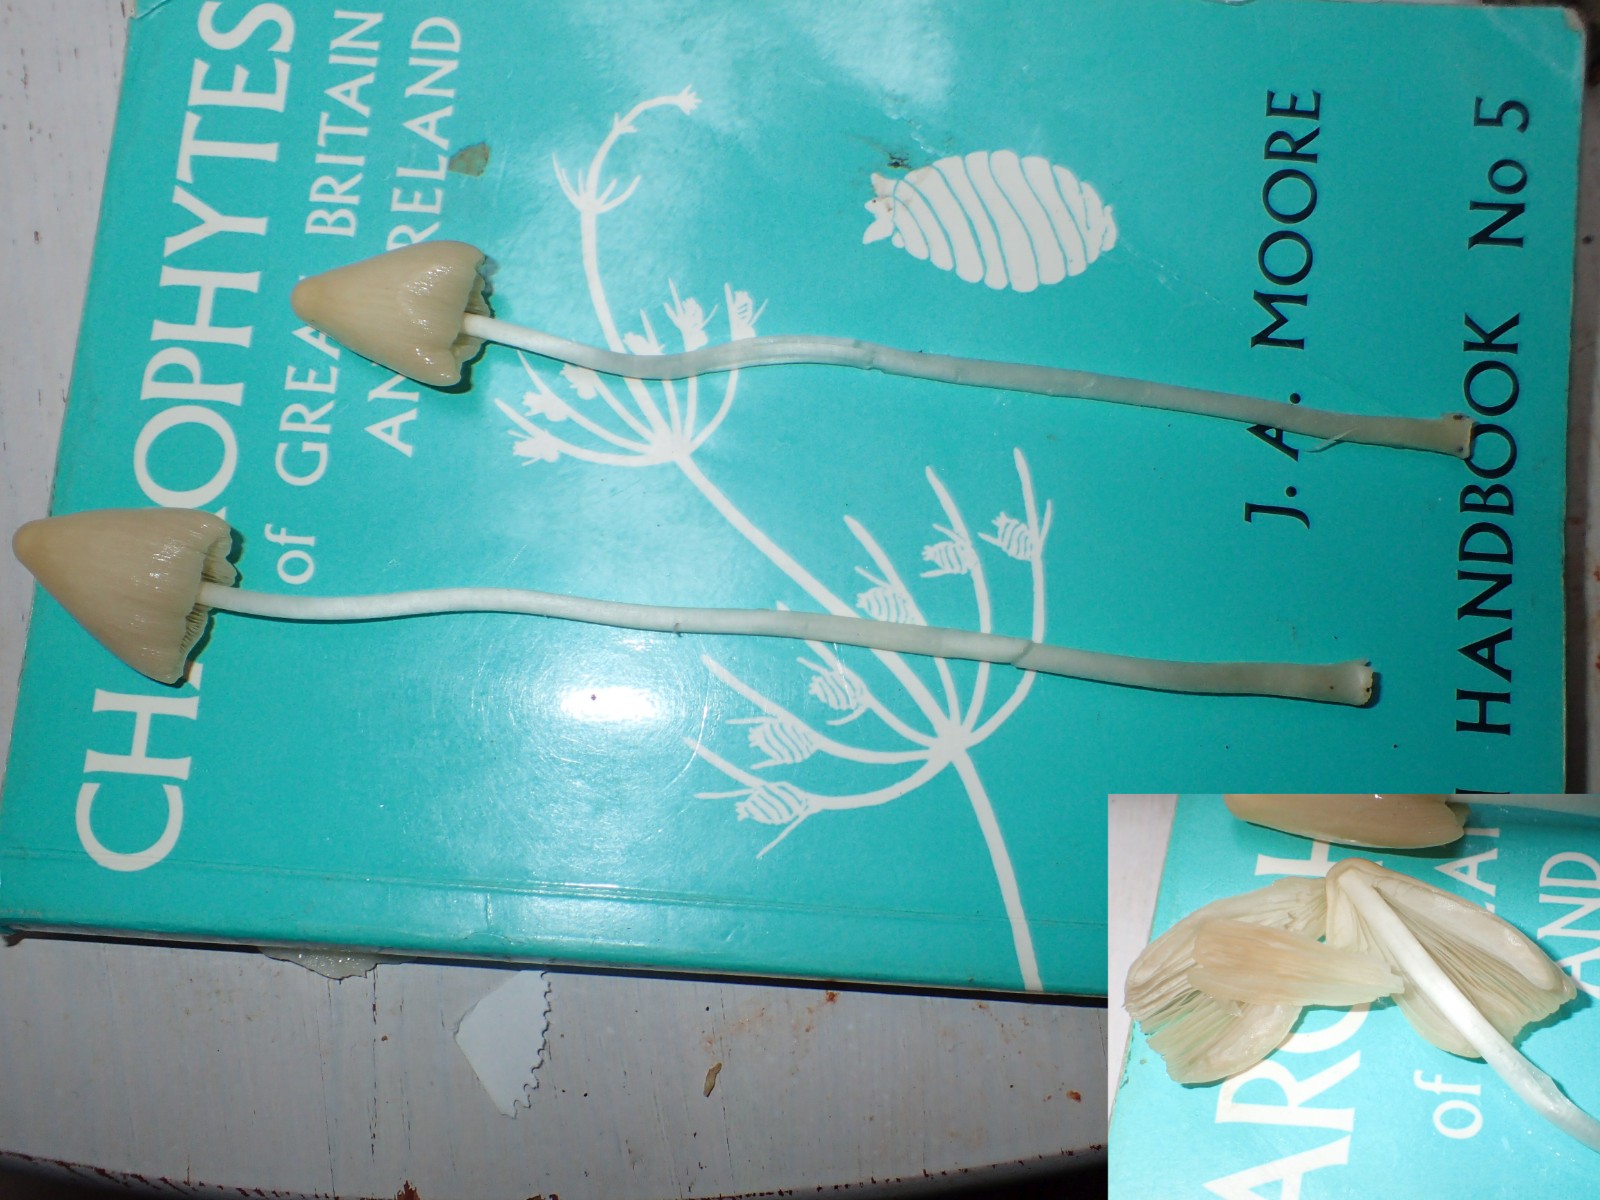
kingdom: Fungi
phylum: Basidiomycota
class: Agaricomycetes
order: Agaricales
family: Bolbitiaceae
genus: Conocybe
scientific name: Conocybe apala
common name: mælkehvid keglehat
